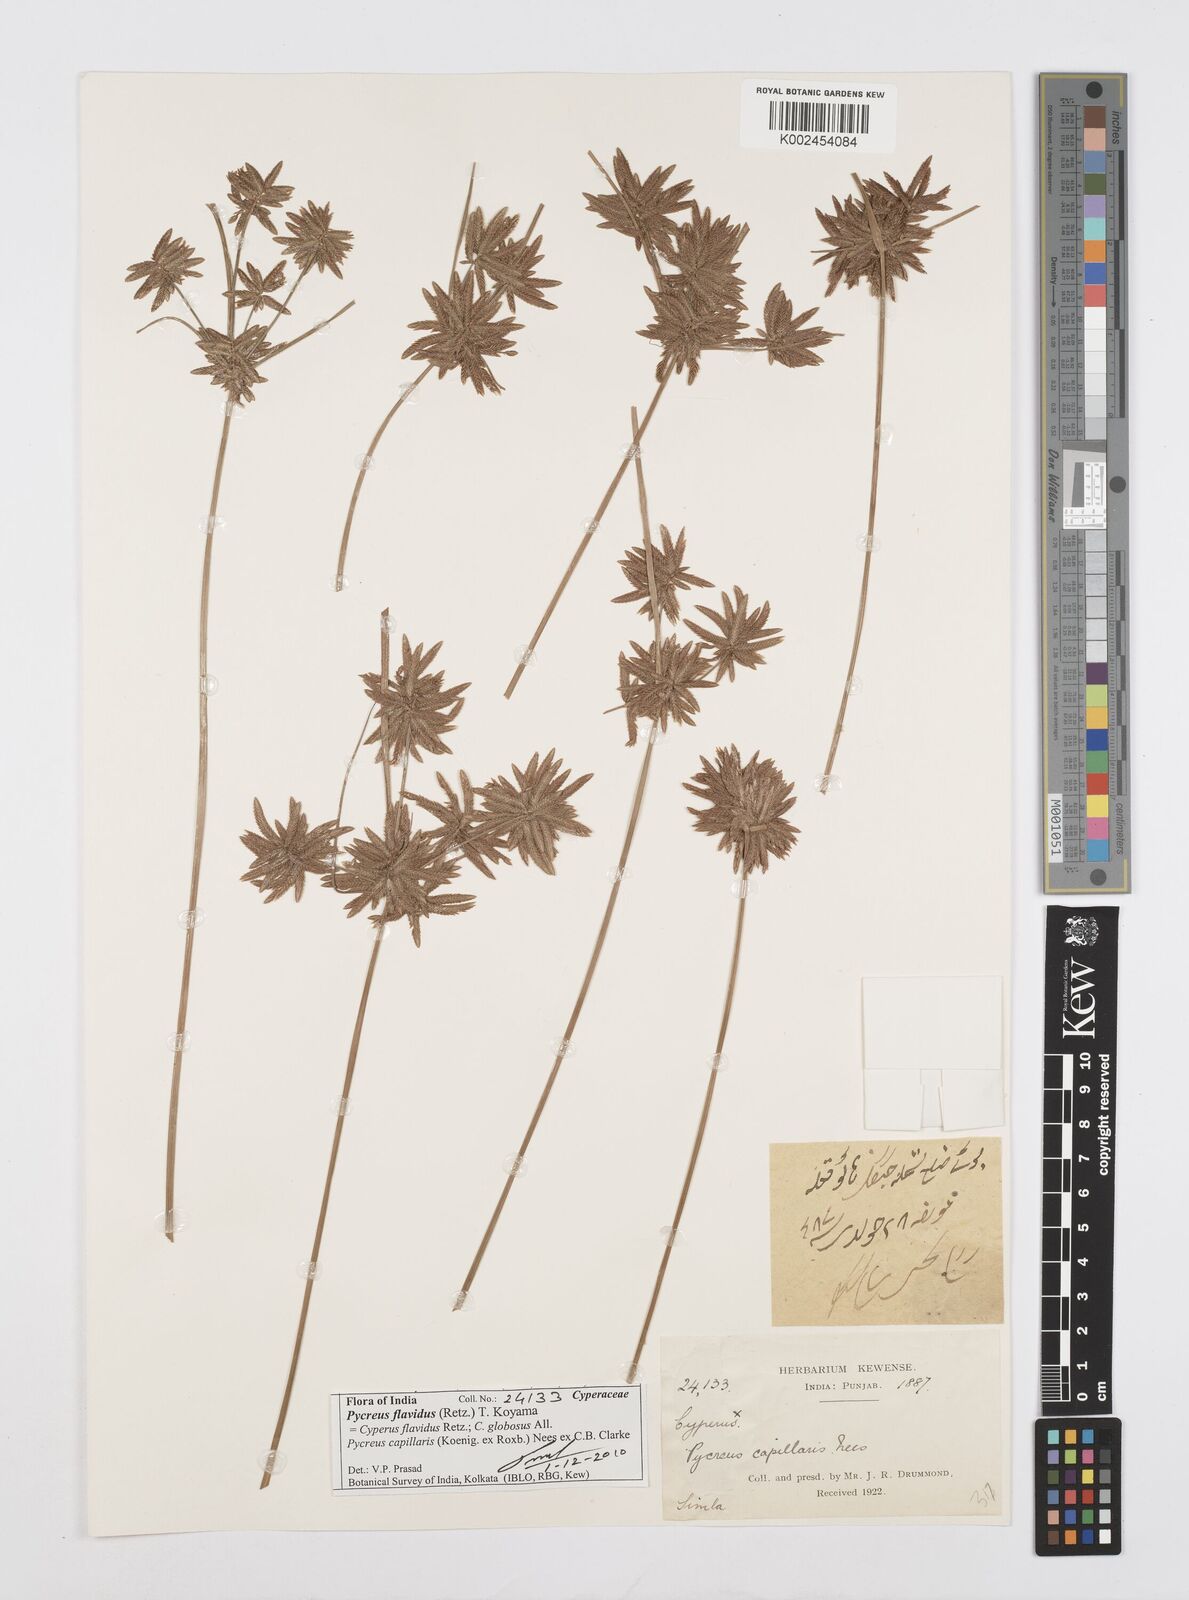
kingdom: Plantae
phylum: Tracheophyta
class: Liliopsida
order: Poales
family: Cyperaceae
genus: Cyperus
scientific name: Cyperus flavidus
